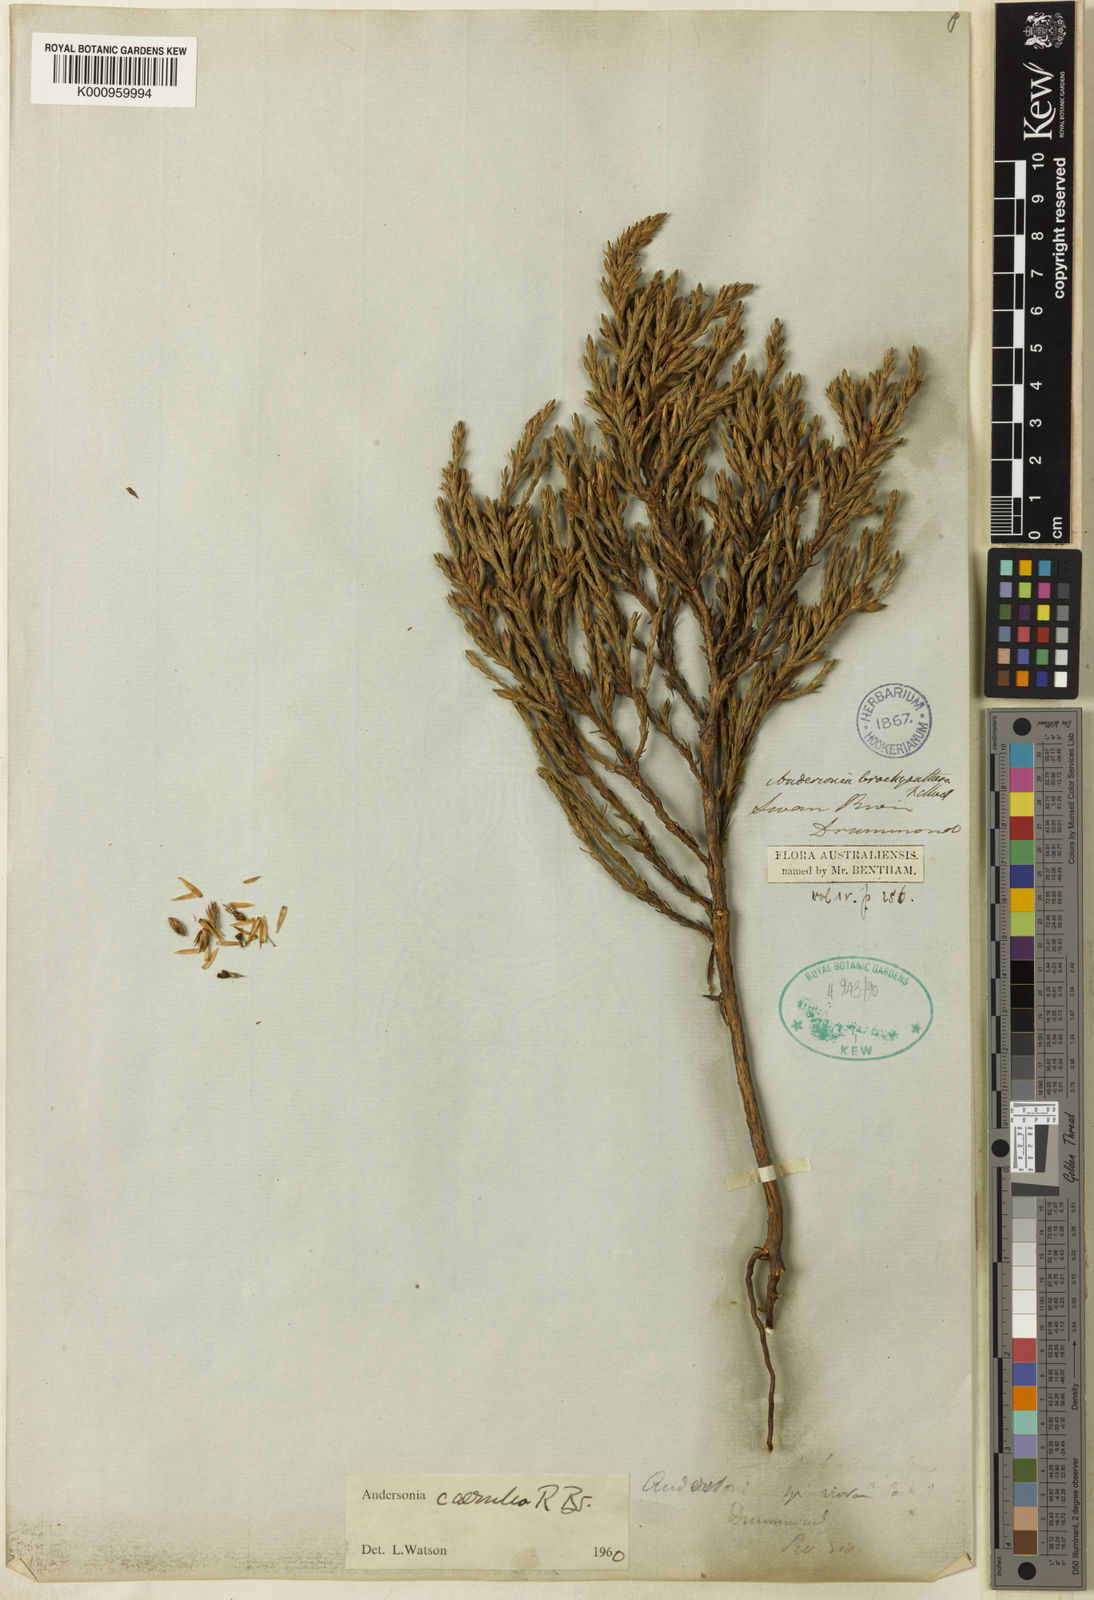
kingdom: Plantae
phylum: Tracheophyta
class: Magnoliopsida
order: Ericales
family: Ericaceae
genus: Andersonia
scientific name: Andersonia caerulea
